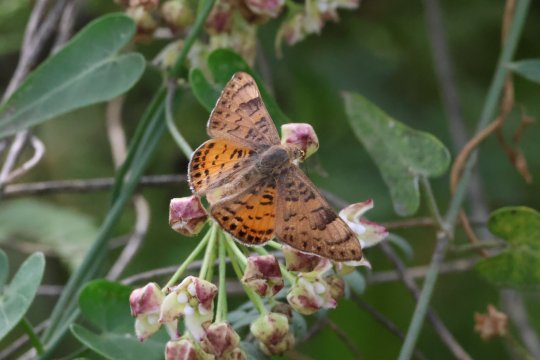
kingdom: Animalia
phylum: Arthropoda
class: Insecta
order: Lepidoptera
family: Lycaenidae
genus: Emesis
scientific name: Emesis zela
